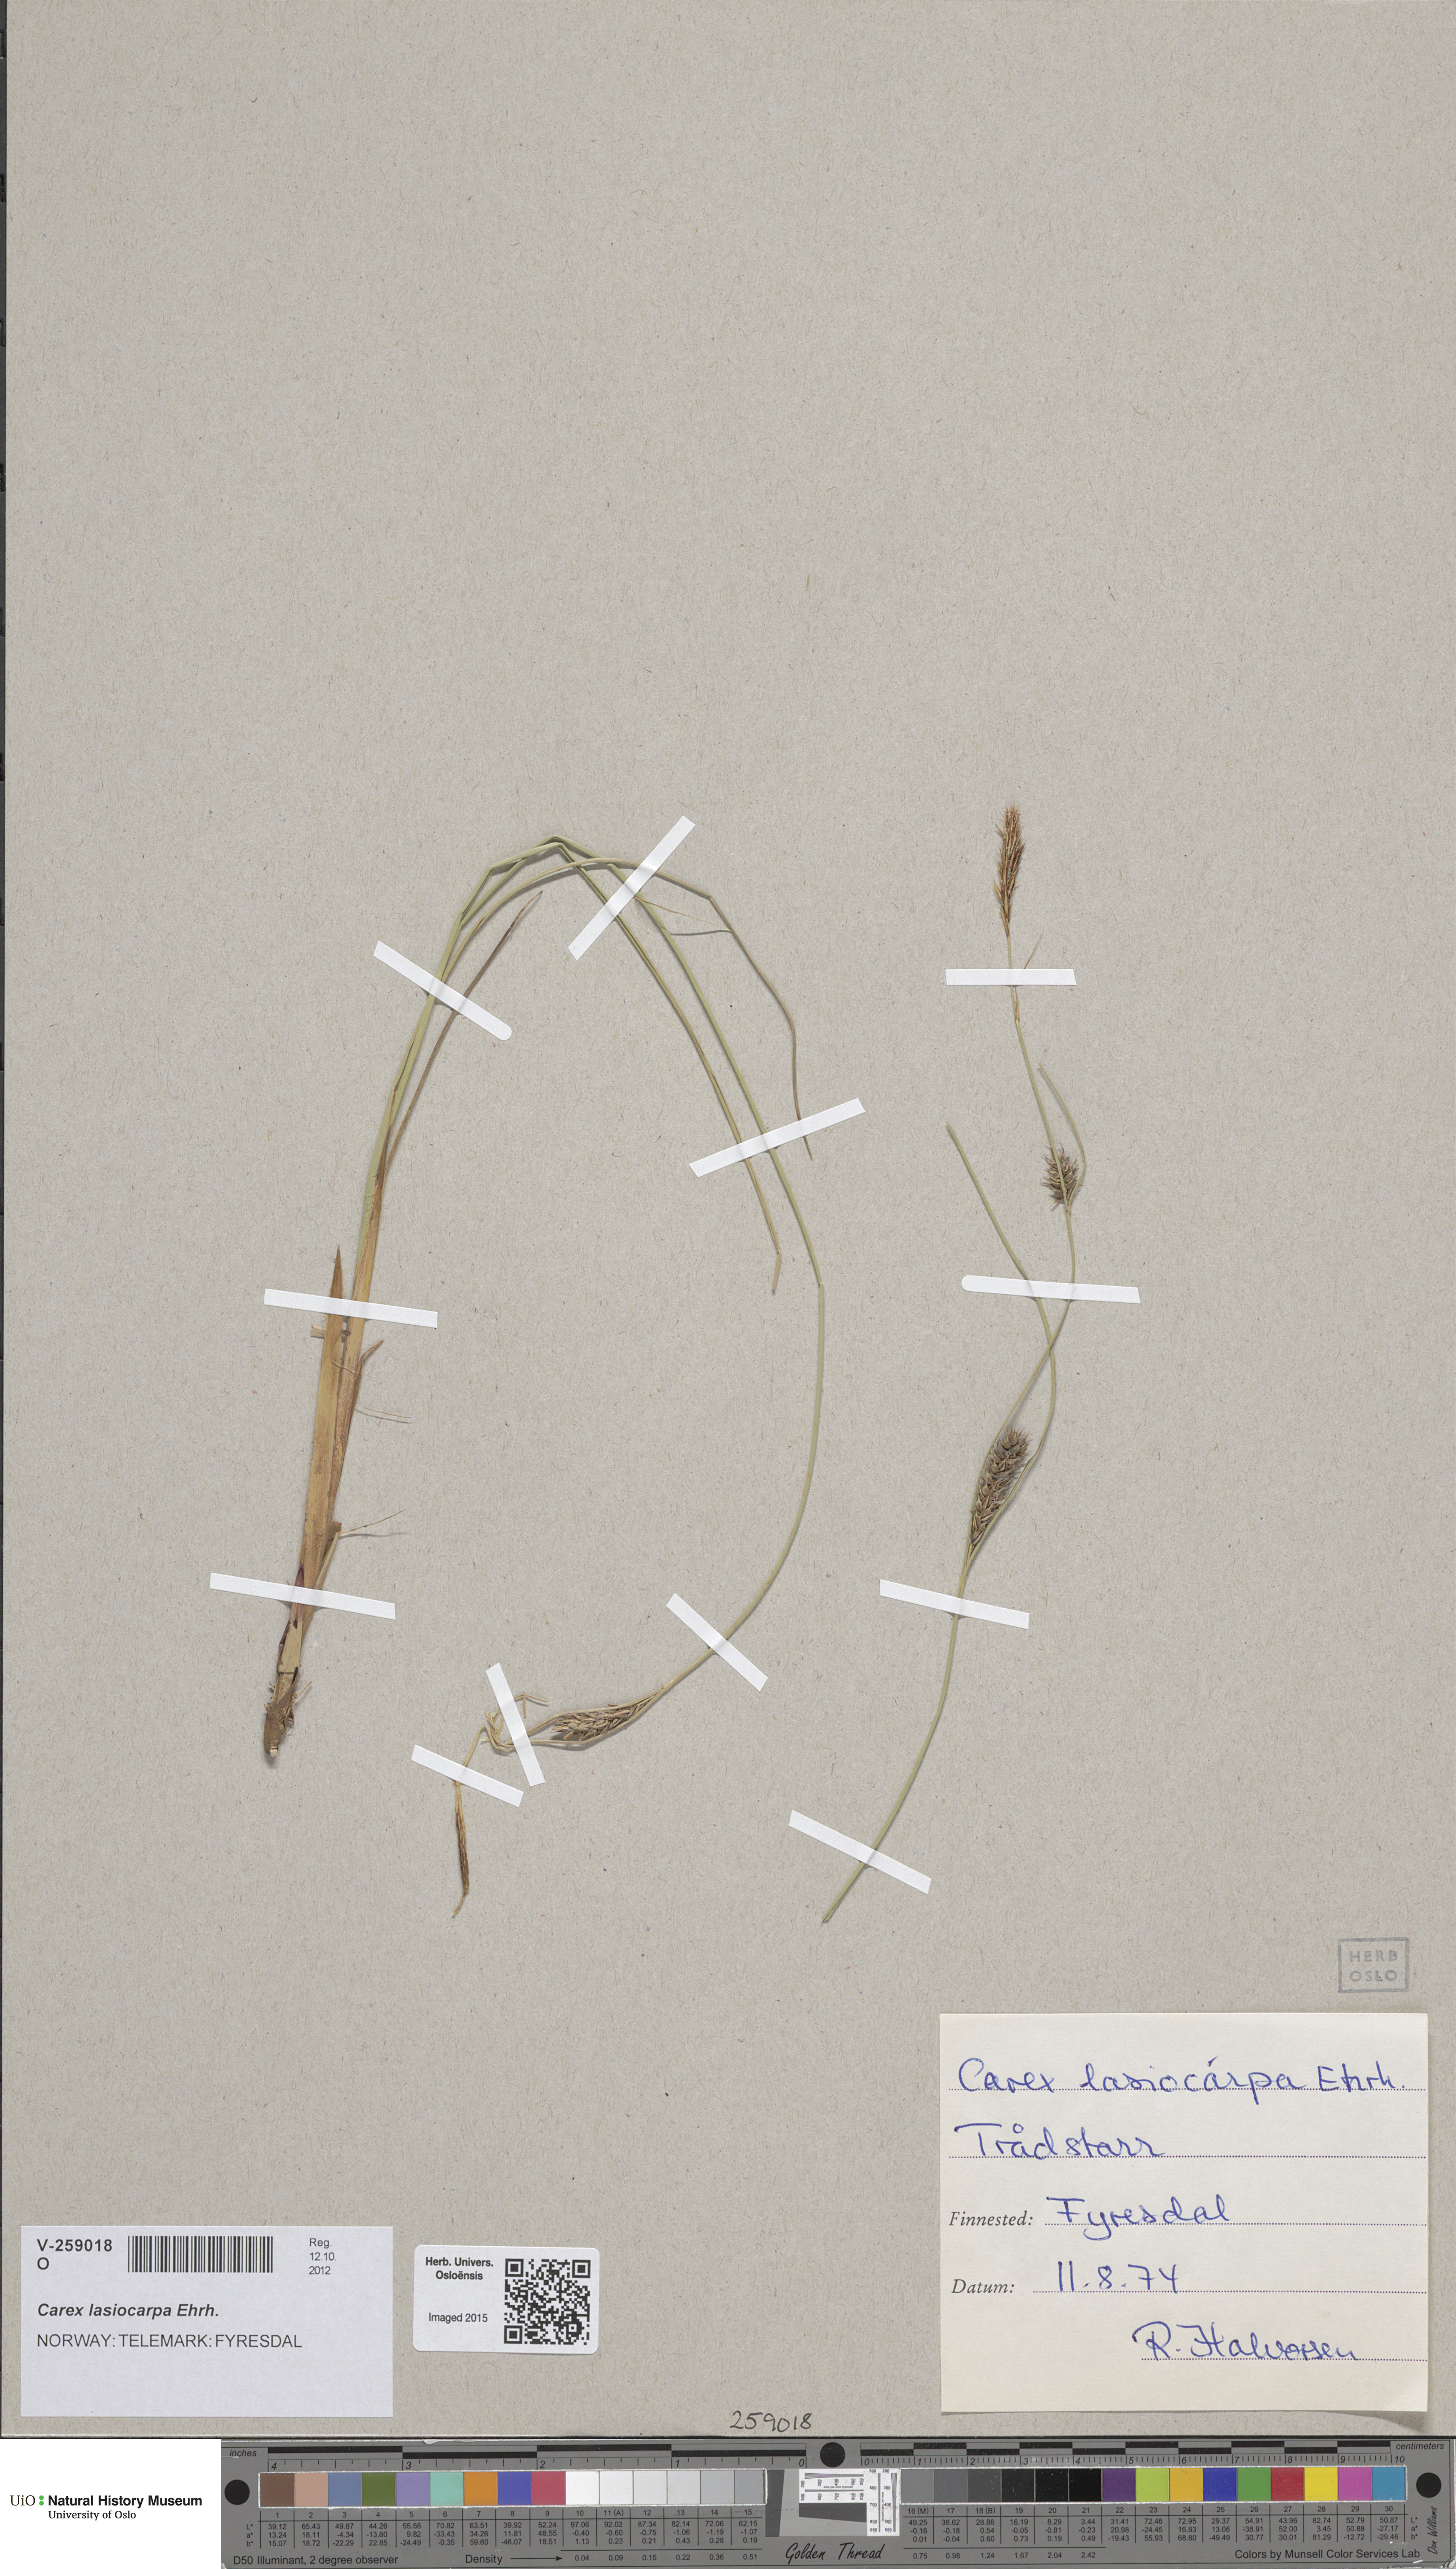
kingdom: Plantae
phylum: Tracheophyta
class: Liliopsida
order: Poales
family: Cyperaceae
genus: Carex
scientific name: Carex lasiocarpa
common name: Slender sedge
